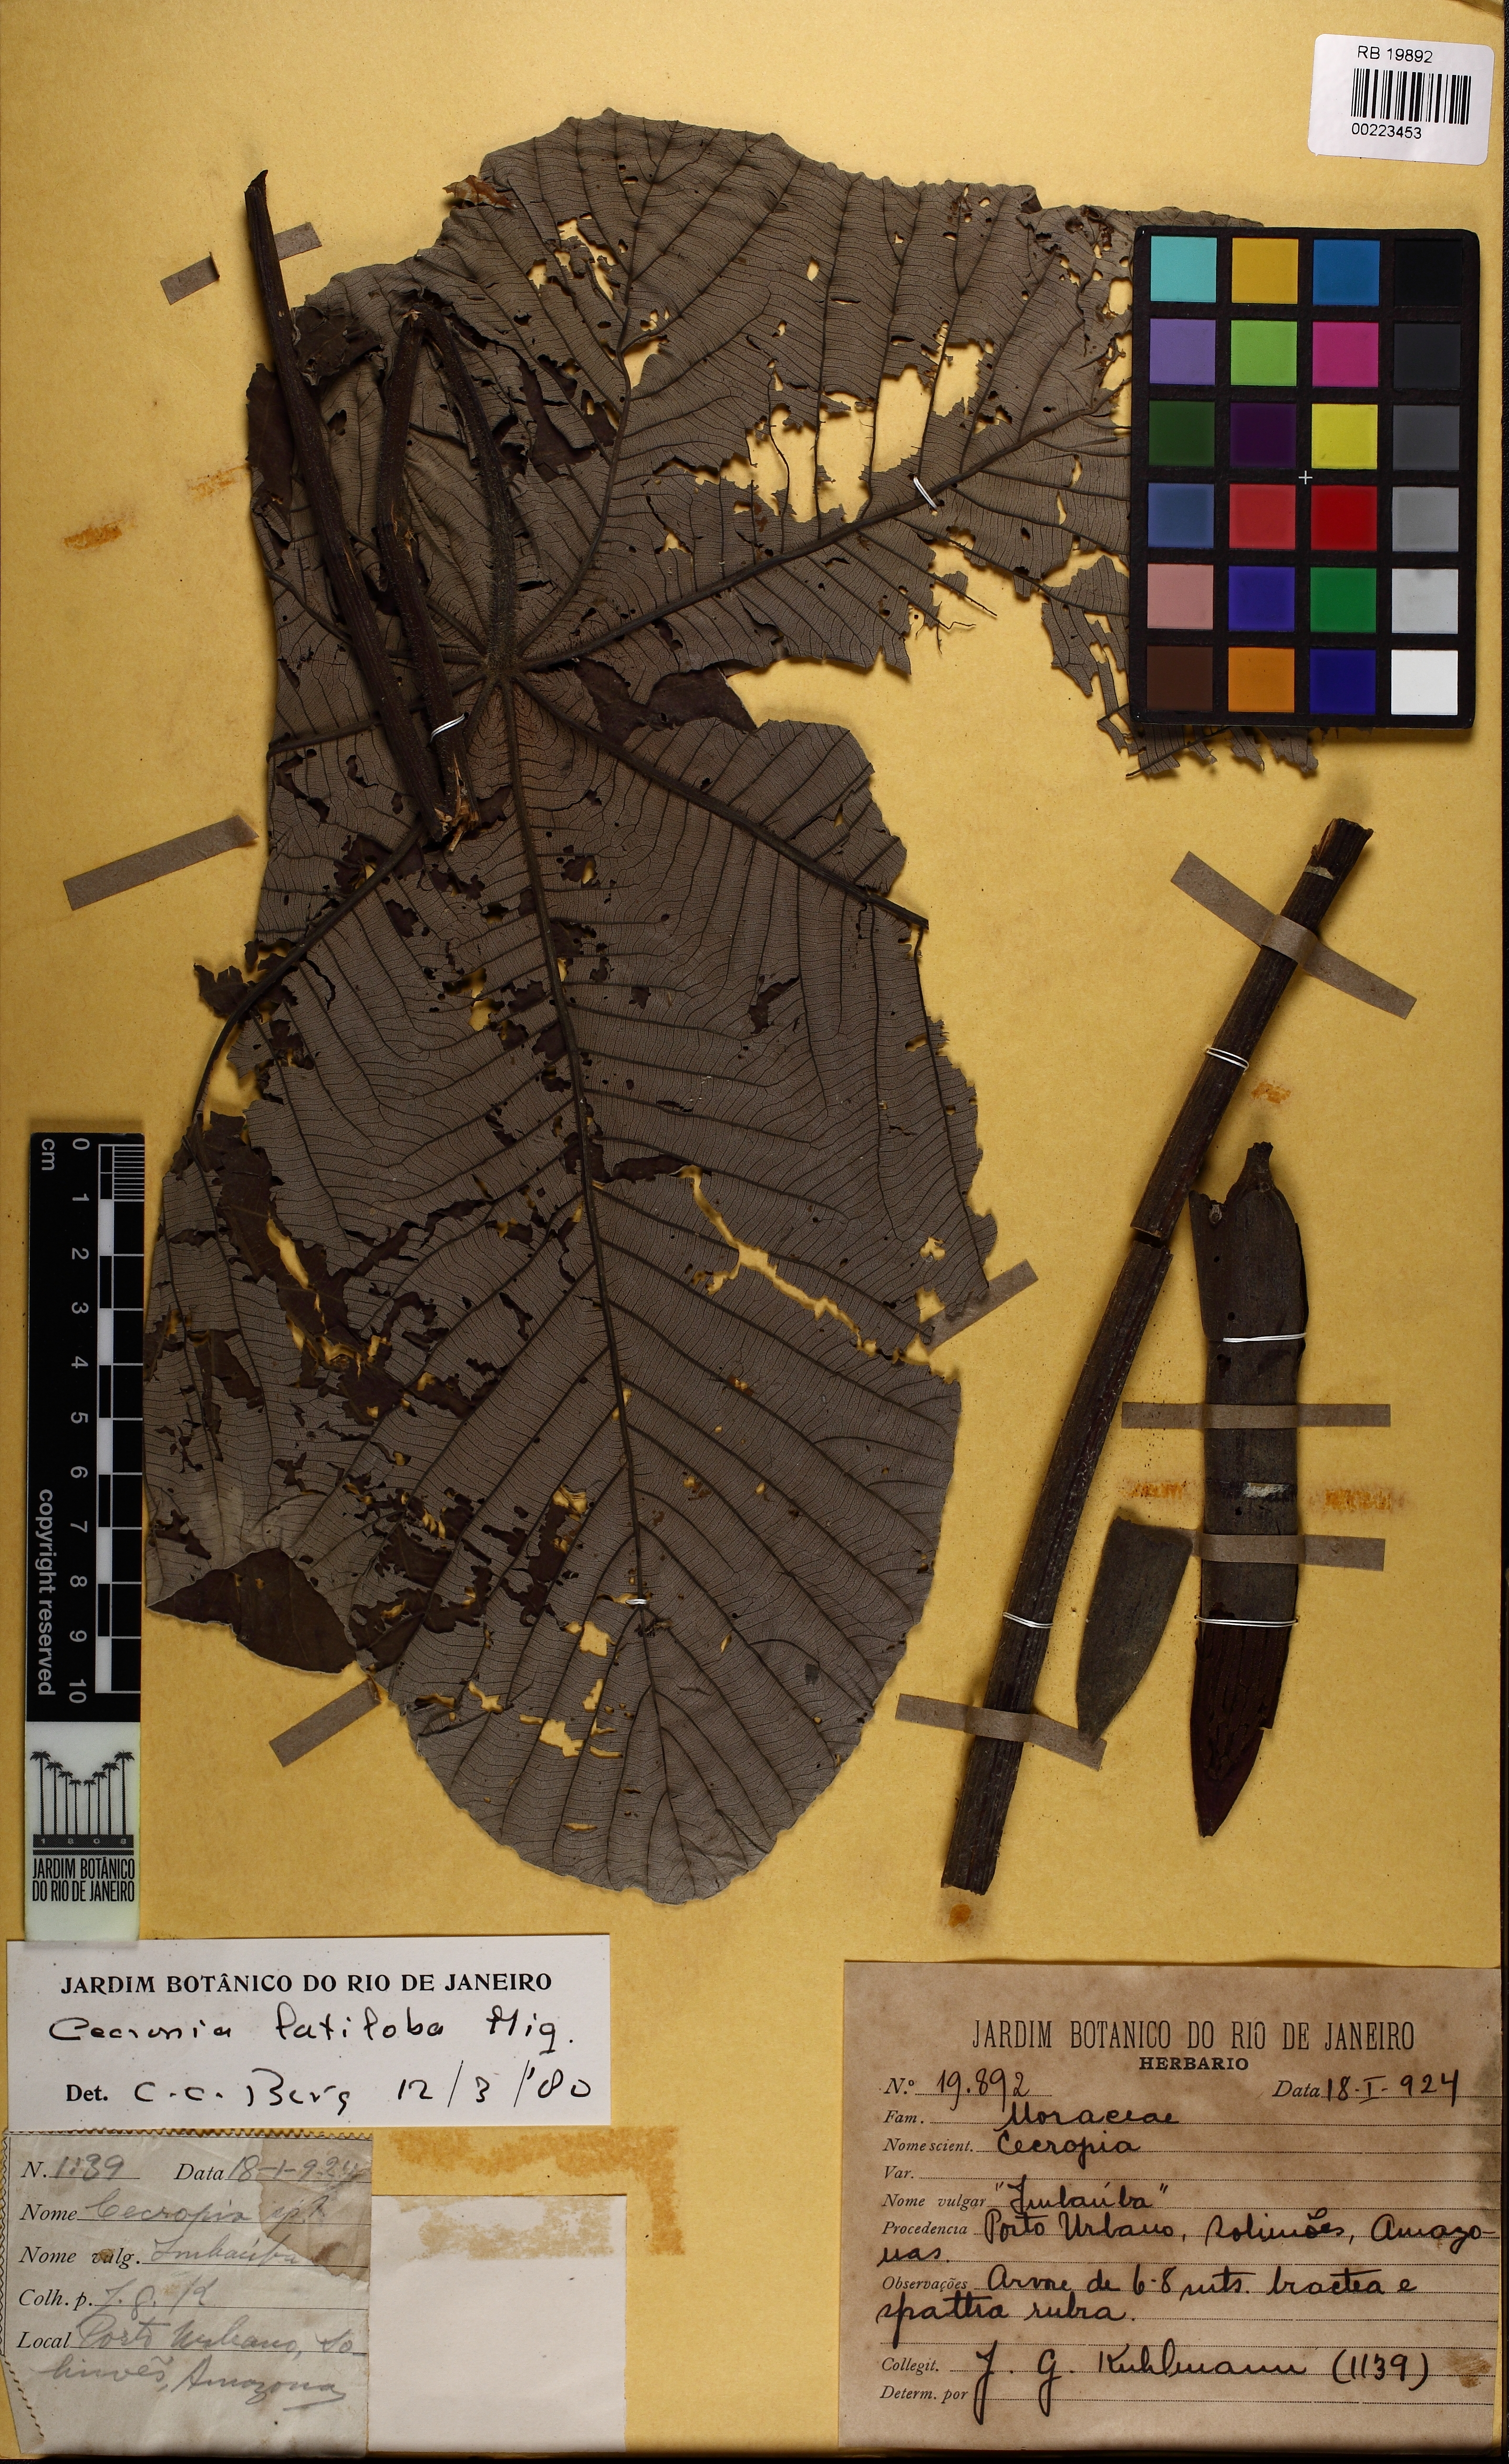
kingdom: Plantae
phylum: Tracheophyta
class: Magnoliopsida
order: Rosales
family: Urticaceae
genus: Cecropia
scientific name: Cecropia latiloba
